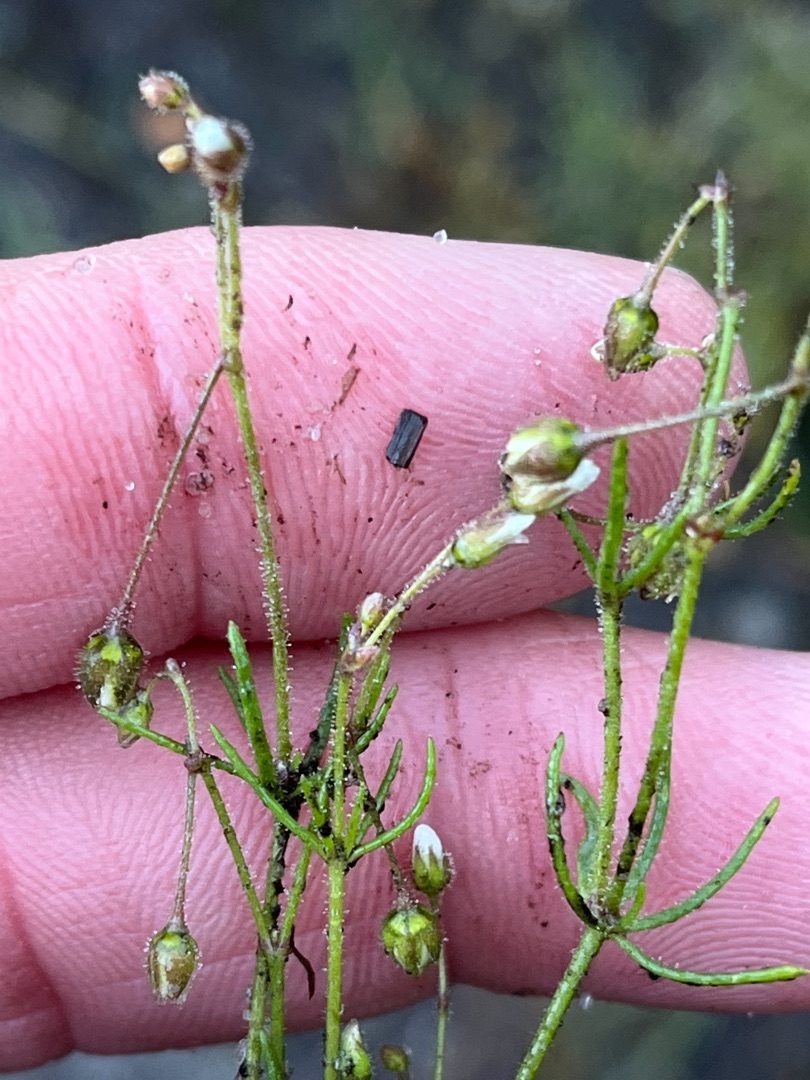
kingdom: Plantae
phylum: Tracheophyta
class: Magnoliopsida
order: Caryophyllales
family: Caryophyllaceae
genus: Spergula
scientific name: Spergula arvensis
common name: Almindelig spergel
